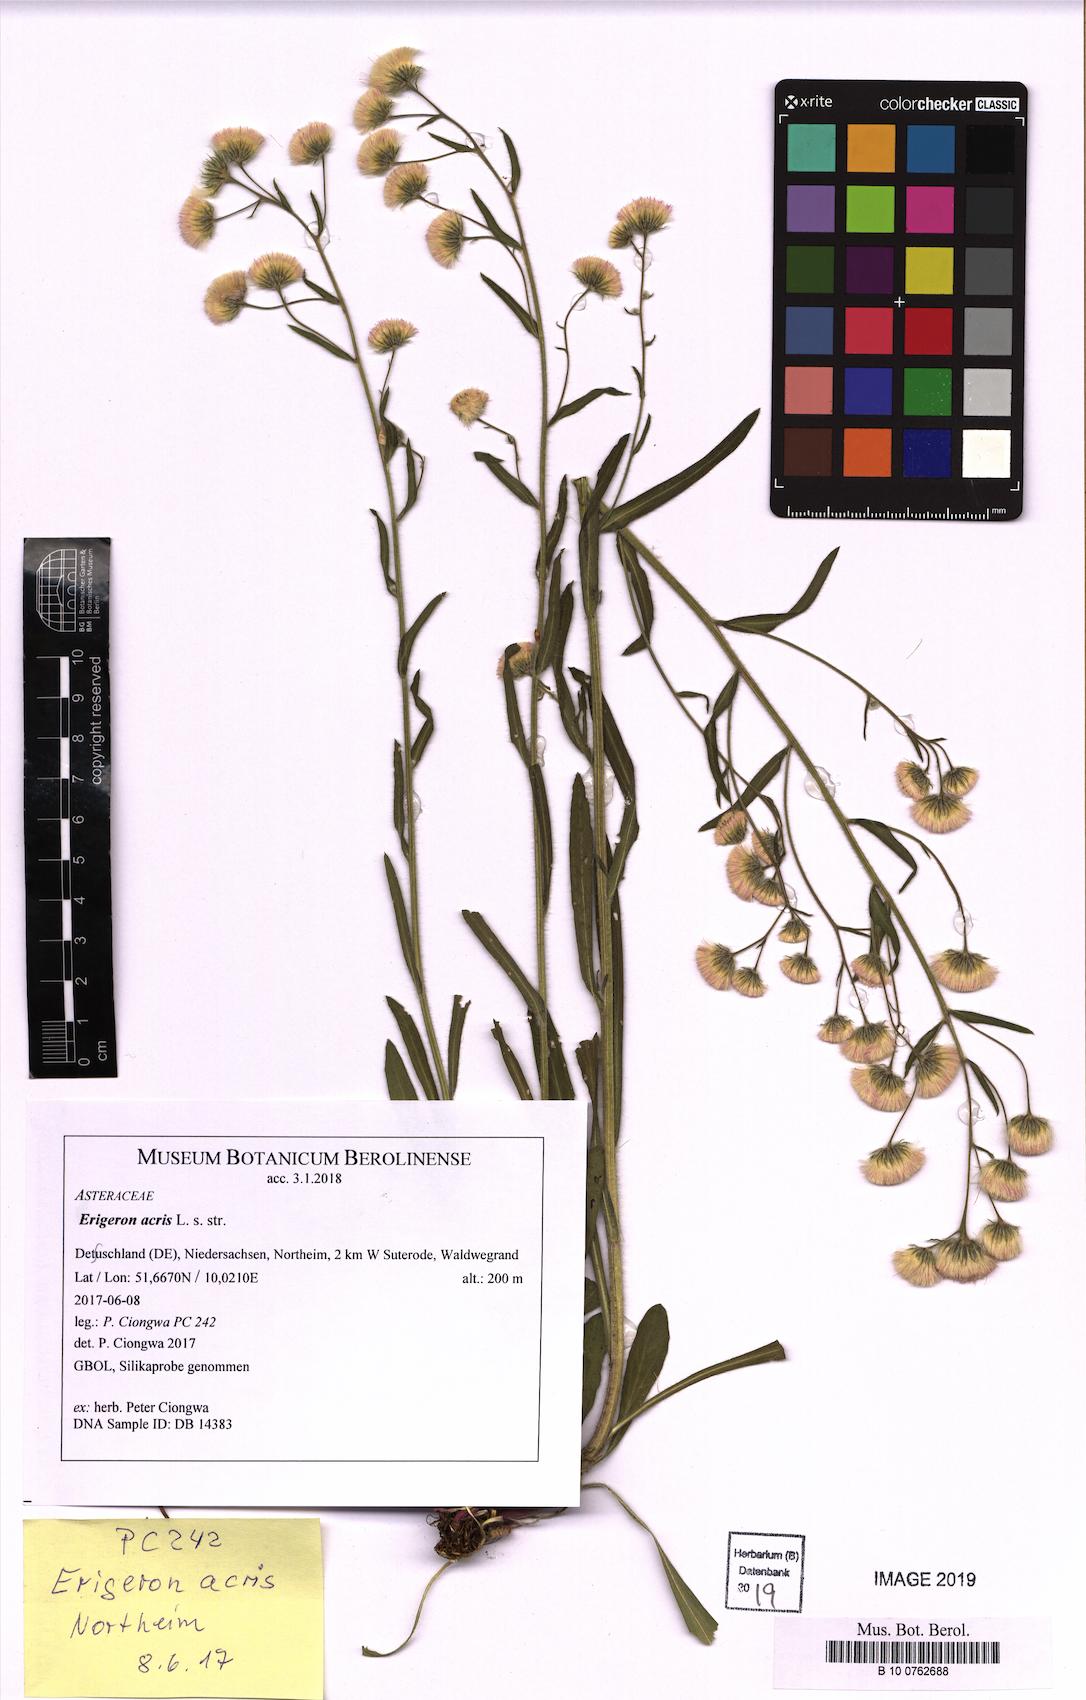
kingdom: Plantae
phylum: Tracheophyta
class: Magnoliopsida
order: Asterales
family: Asteraceae
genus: Erigeron
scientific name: Erigeron acris
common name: Blue fleabane
